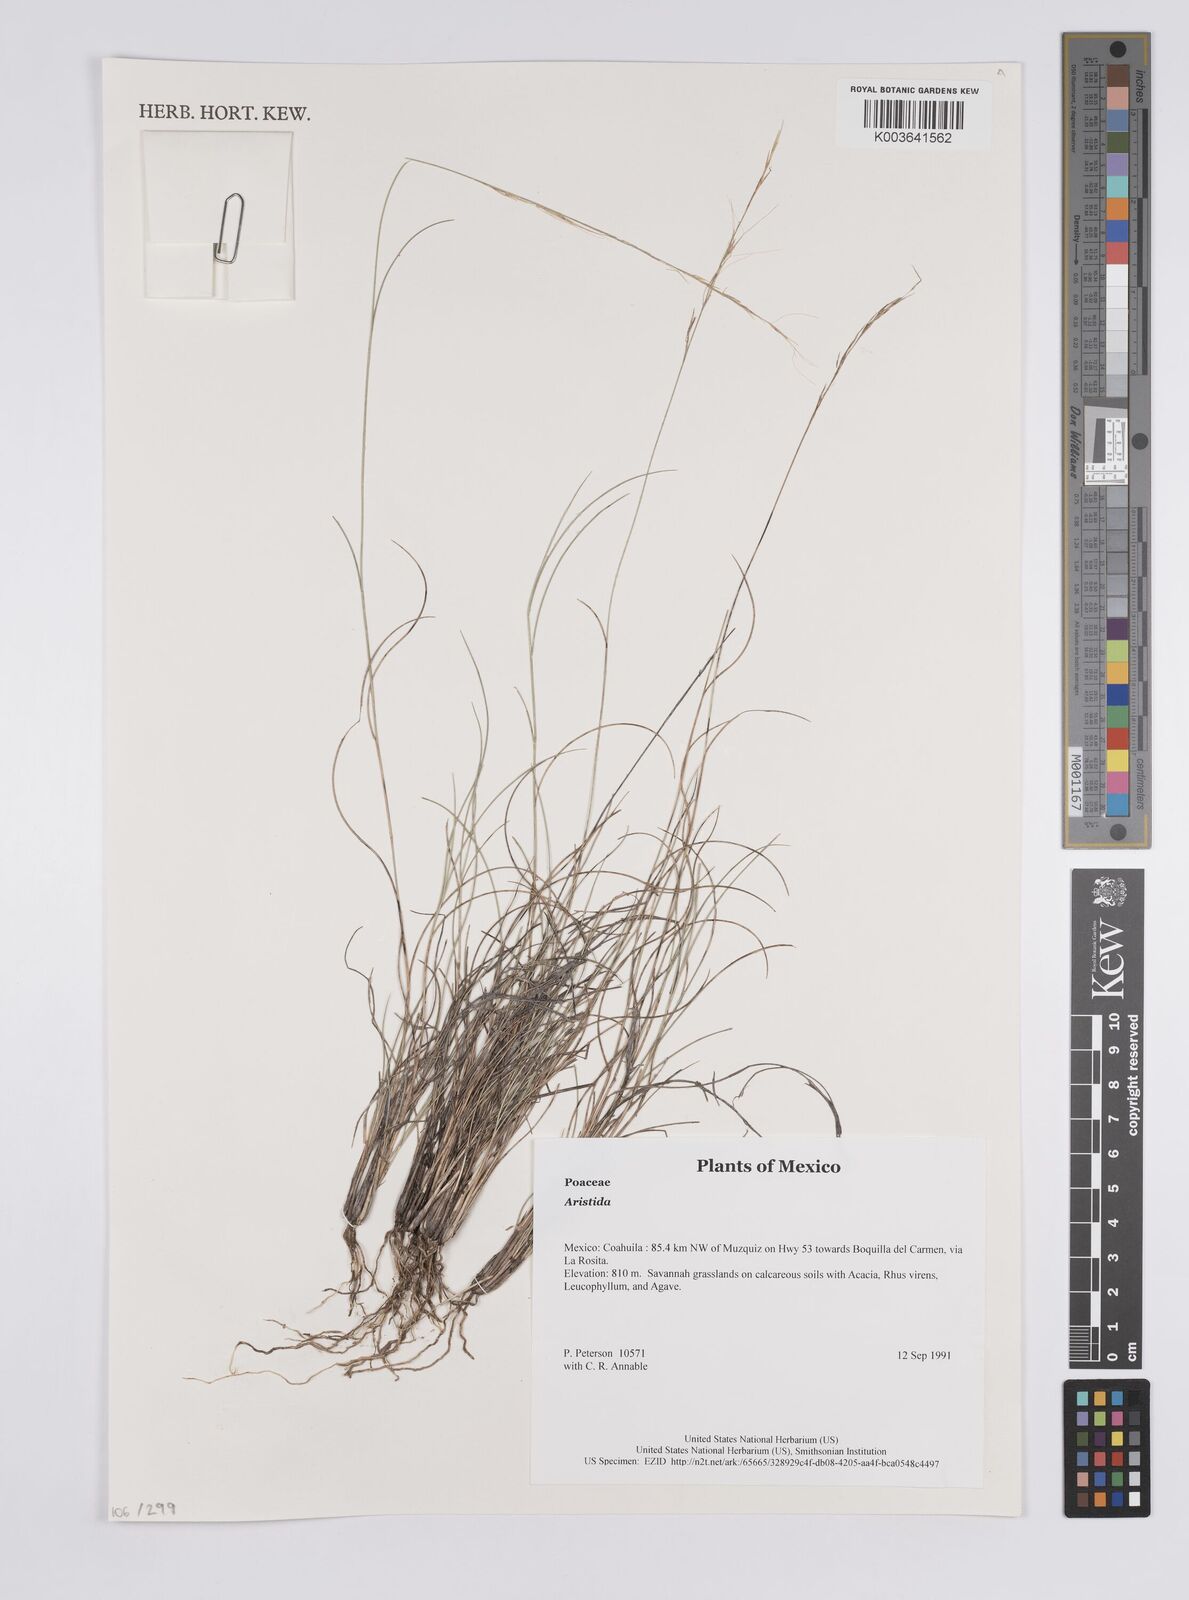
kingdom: Plantae
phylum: Tracheophyta
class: Liliopsida
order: Poales
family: Poaceae
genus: Aristida
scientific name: Aristida
